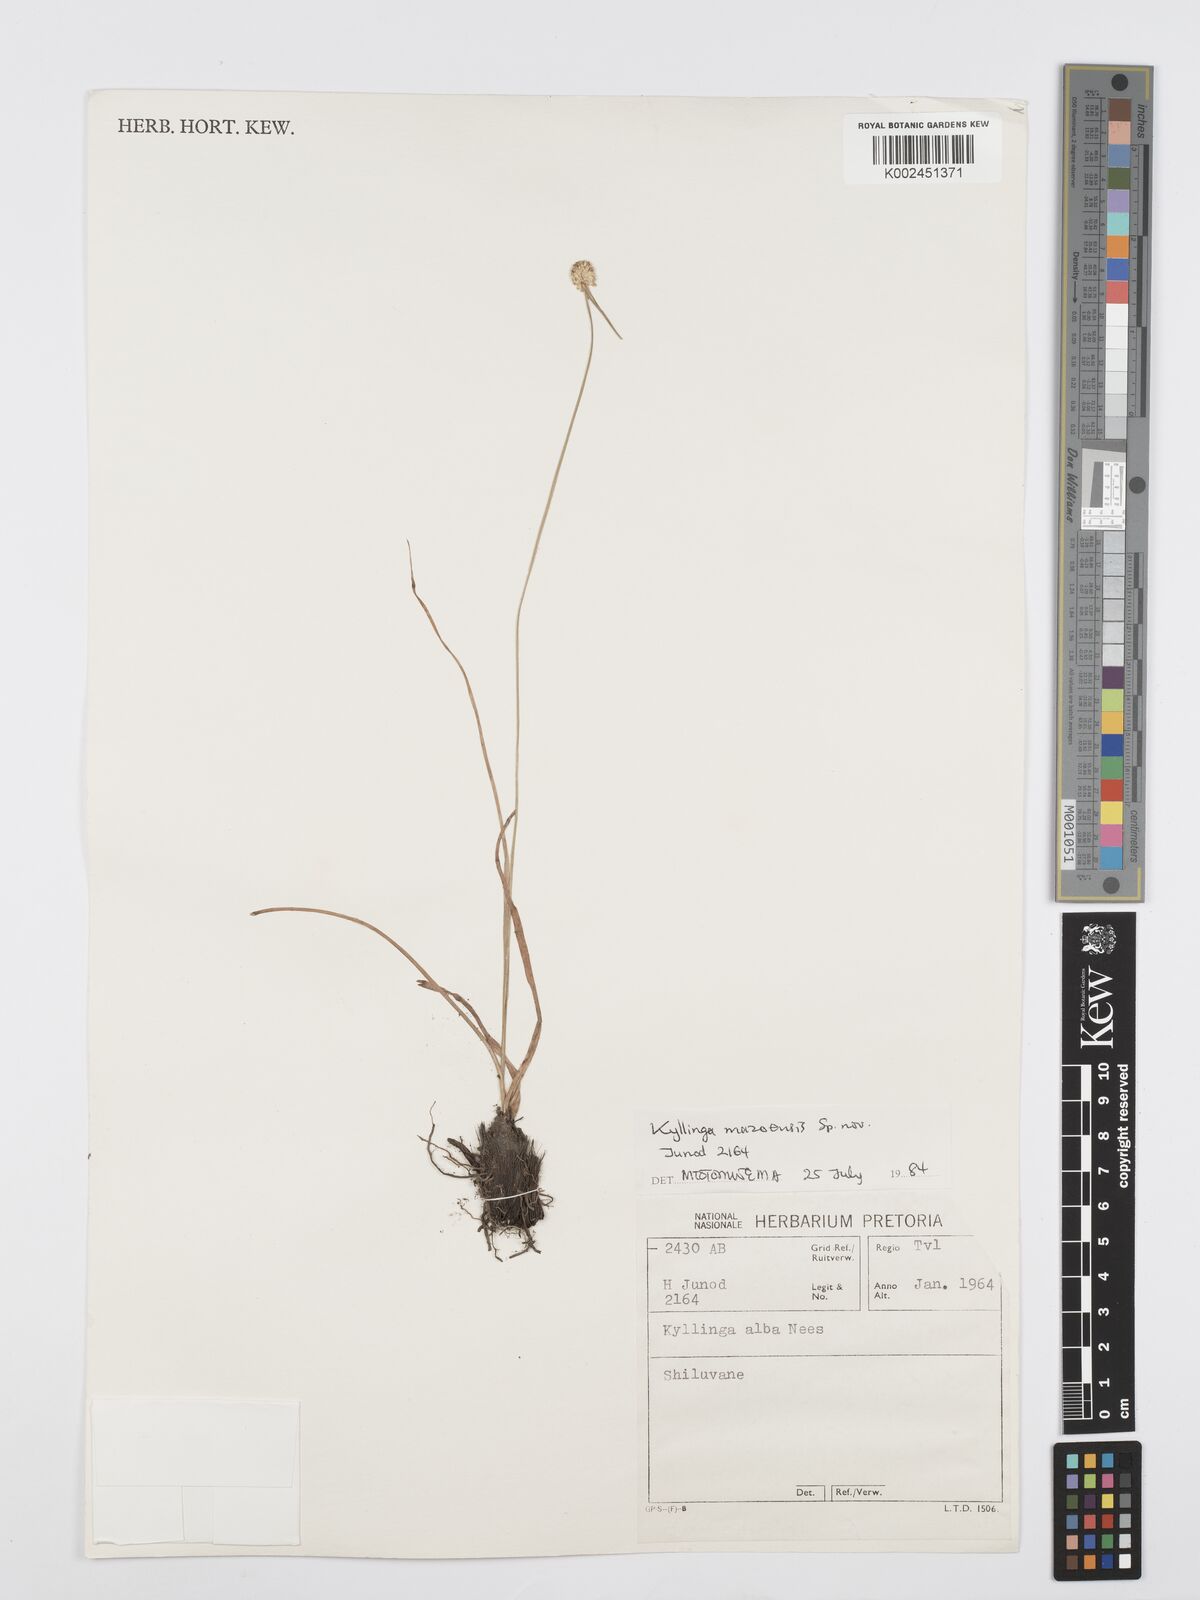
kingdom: Plantae
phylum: Tracheophyta
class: Liliopsida
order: Poales
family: Cyperaceae
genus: Cyperus
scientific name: Cyperus
